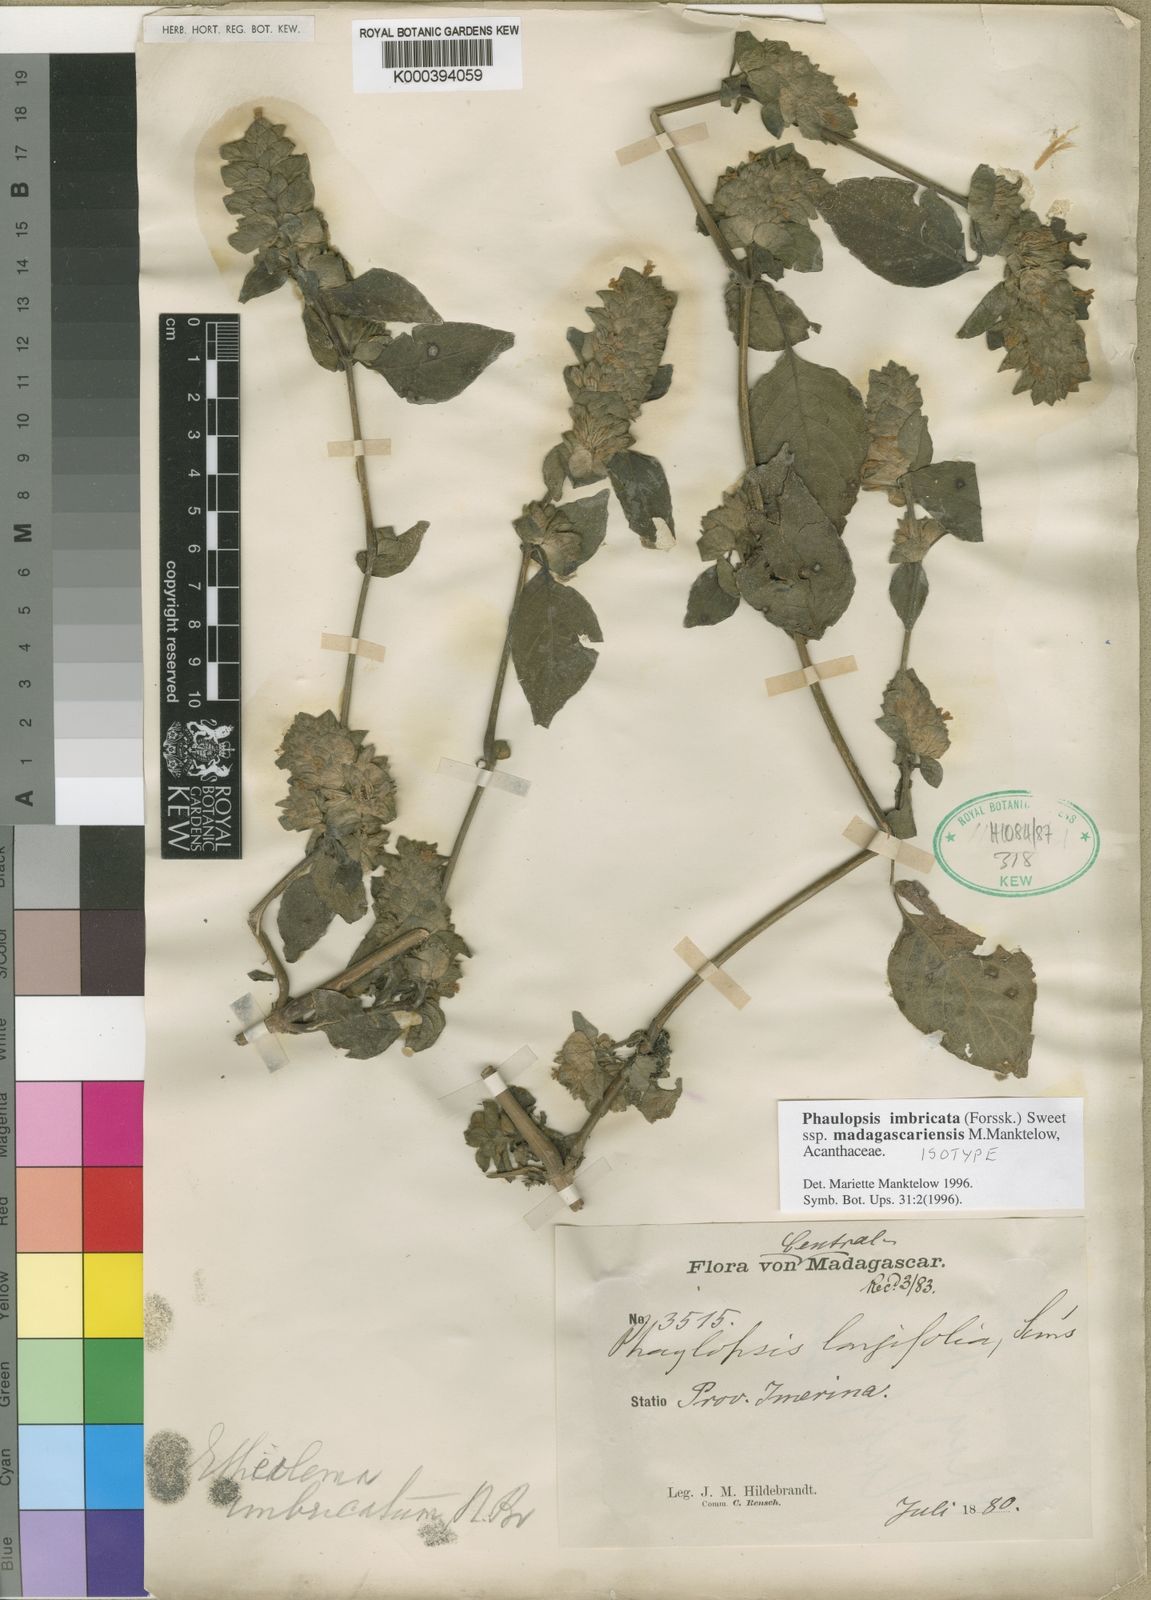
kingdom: Plantae
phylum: Tracheophyta
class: Magnoliopsida
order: Lamiales
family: Acanthaceae
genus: Phaulopsis
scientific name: Phaulopsis imbricata
